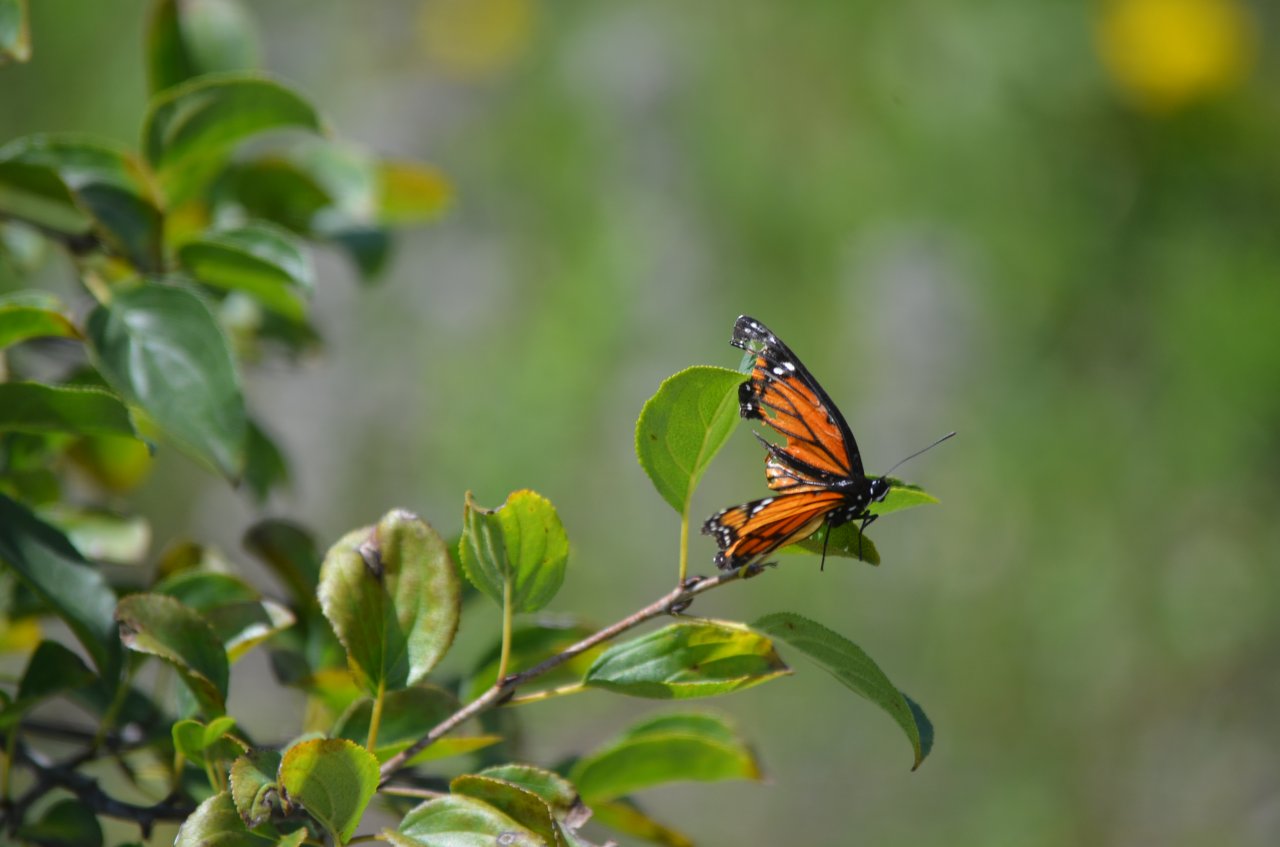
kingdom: Animalia
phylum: Arthropoda
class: Insecta
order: Lepidoptera
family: Nymphalidae
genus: Limenitis
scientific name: Limenitis archippus
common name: Viceroy
